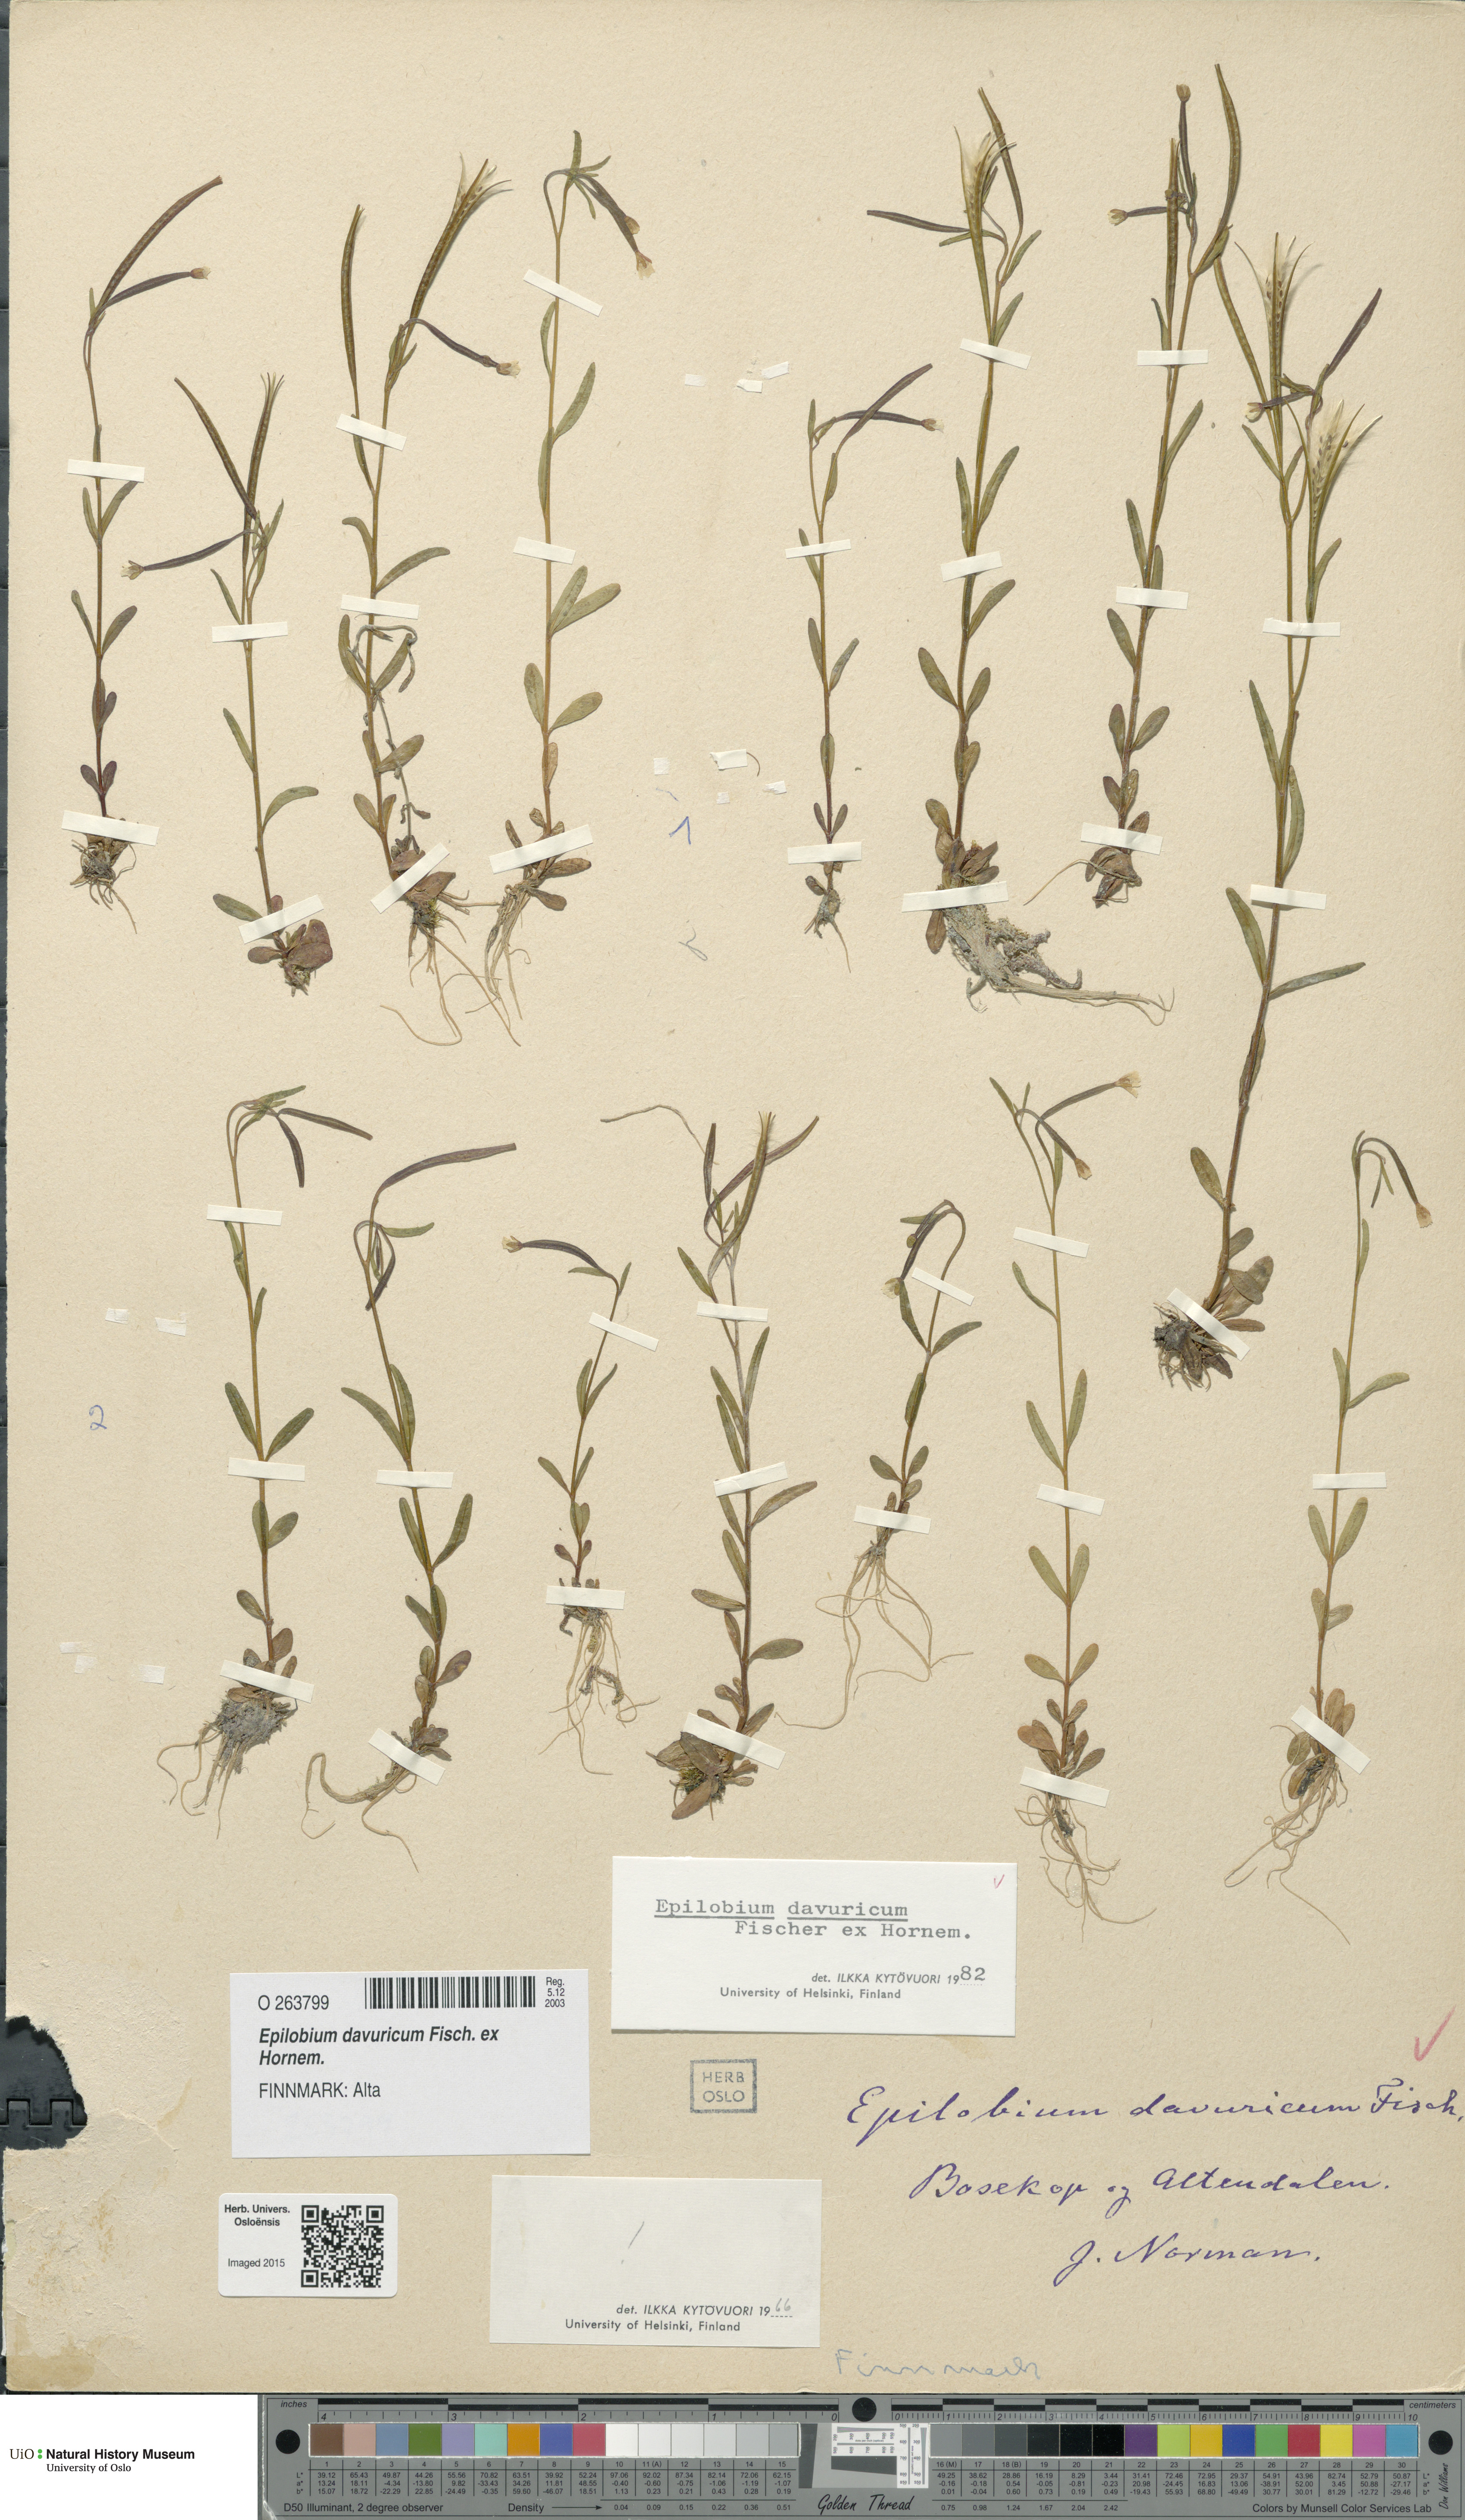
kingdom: Plantae
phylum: Tracheophyta
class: Magnoliopsida
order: Myrtales
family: Onagraceae
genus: Epilobium
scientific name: Epilobium davuricum
